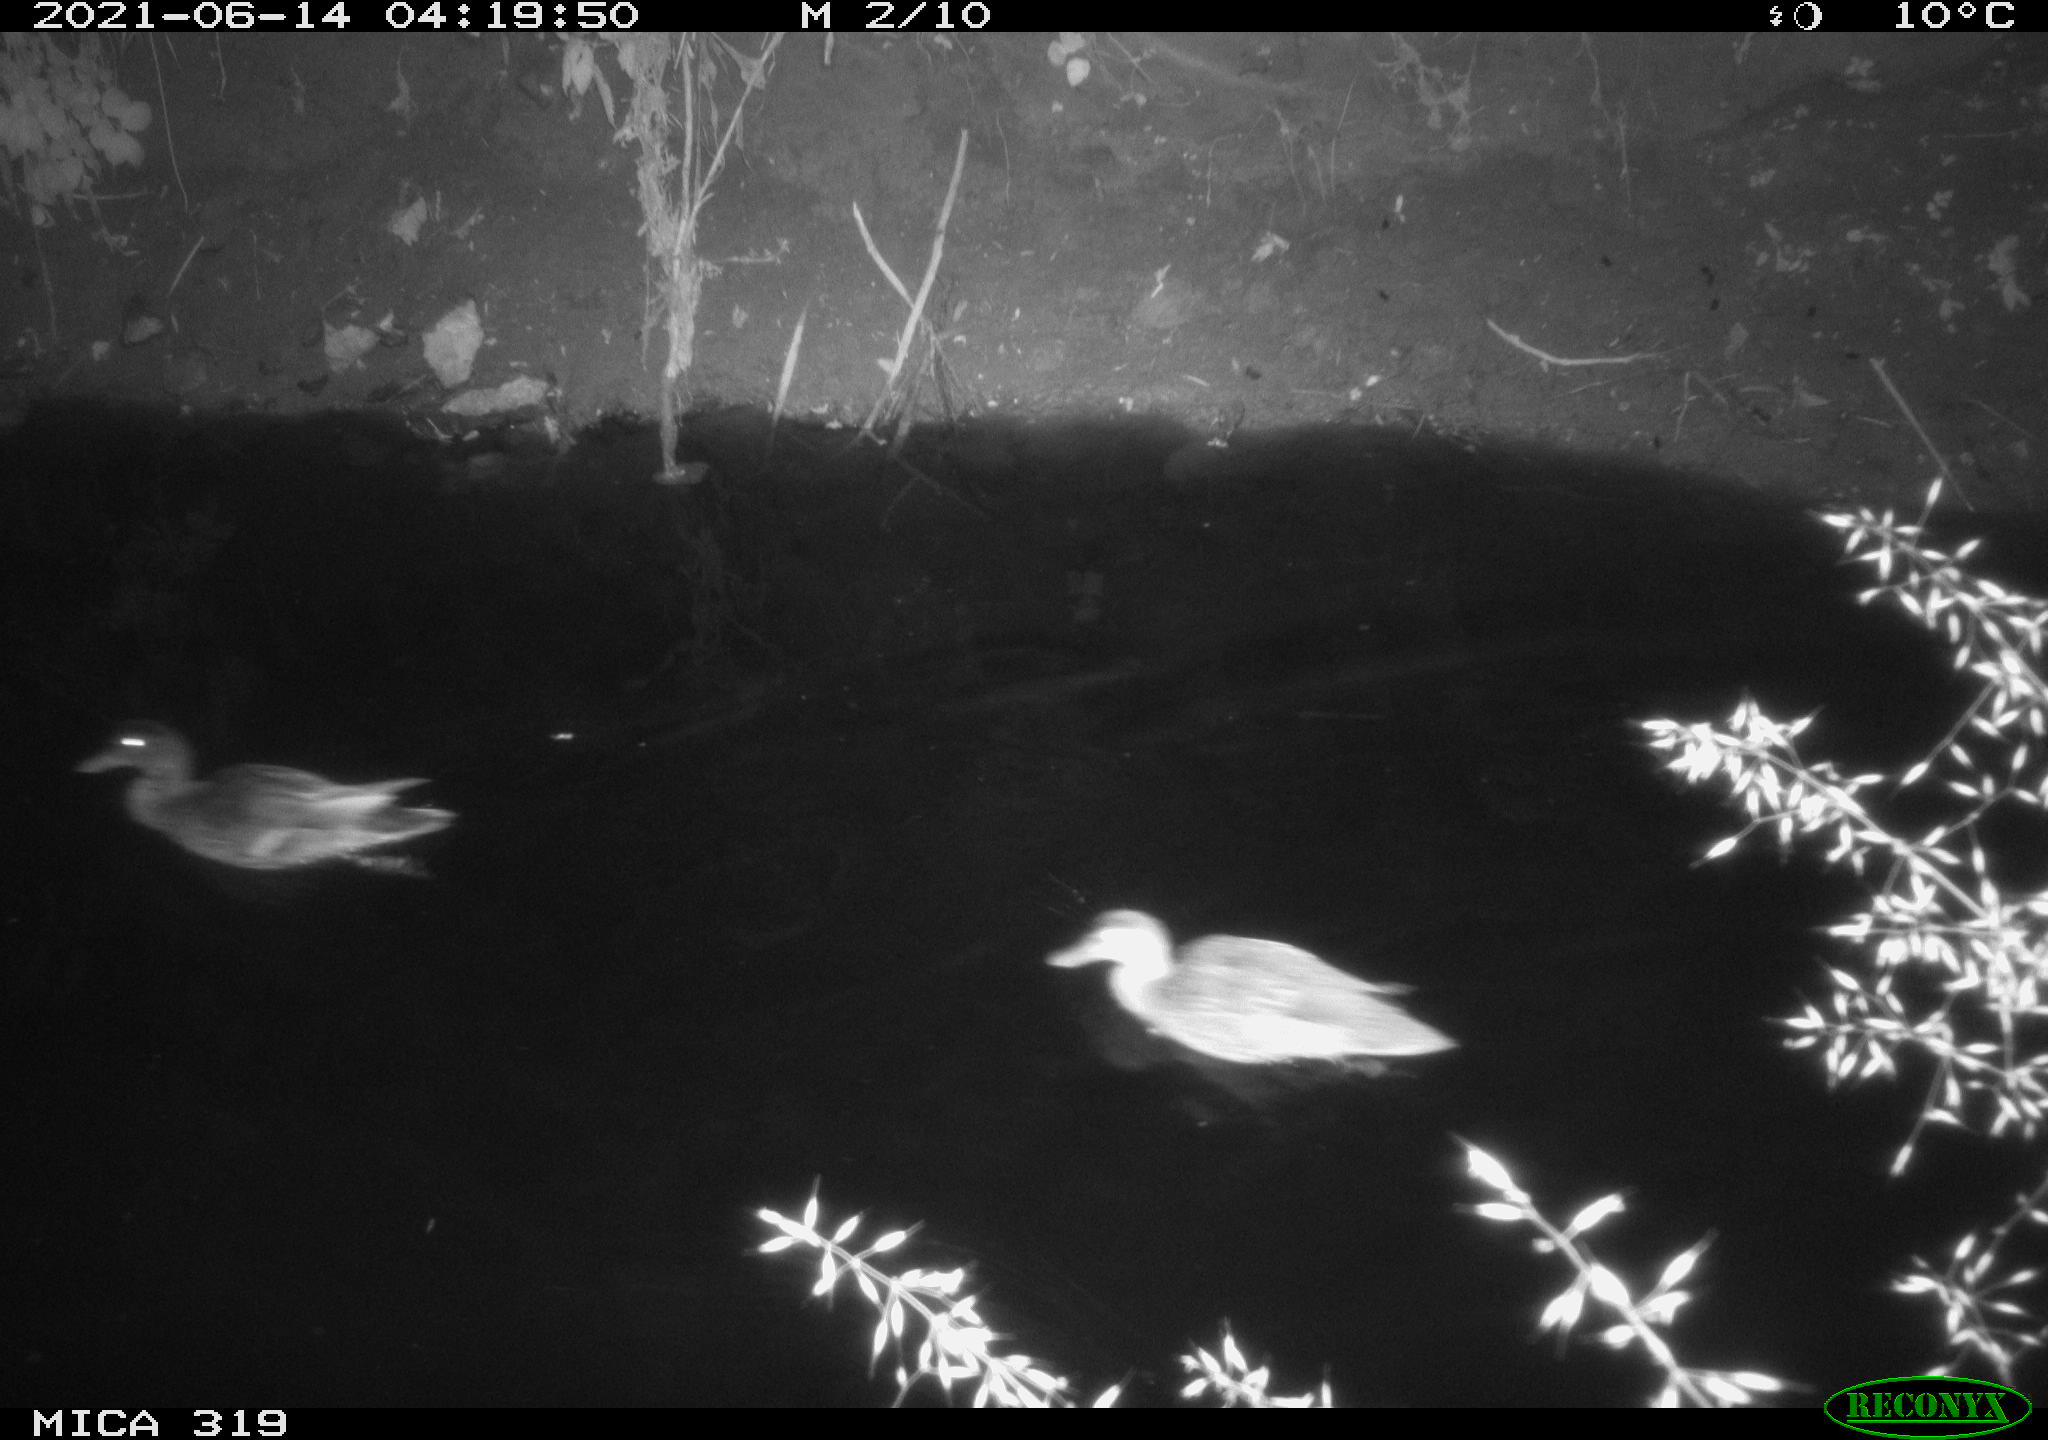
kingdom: Animalia
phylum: Chordata
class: Aves
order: Anseriformes
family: Anatidae
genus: Anas
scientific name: Anas platyrhynchos
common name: Mallard
